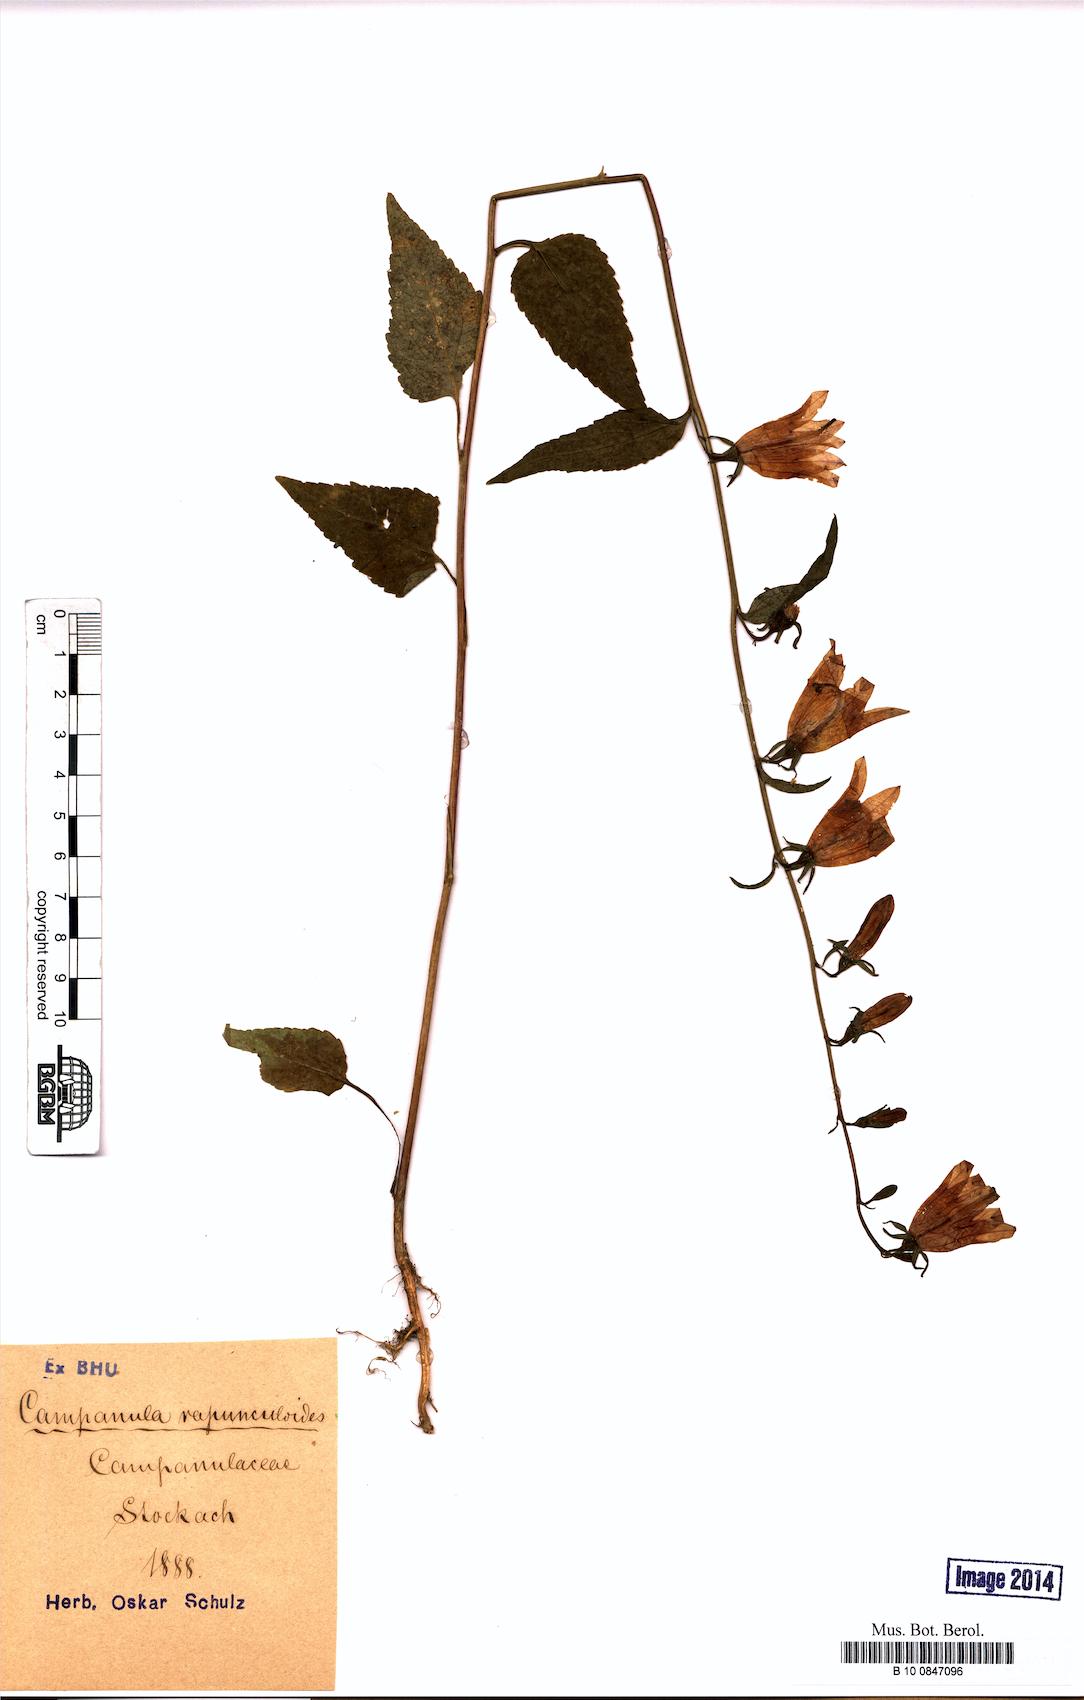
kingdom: Plantae
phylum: Tracheophyta
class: Magnoliopsida
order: Asterales
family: Campanulaceae
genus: Campanula
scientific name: Campanula rapunculoides
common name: Creeping bellflower
